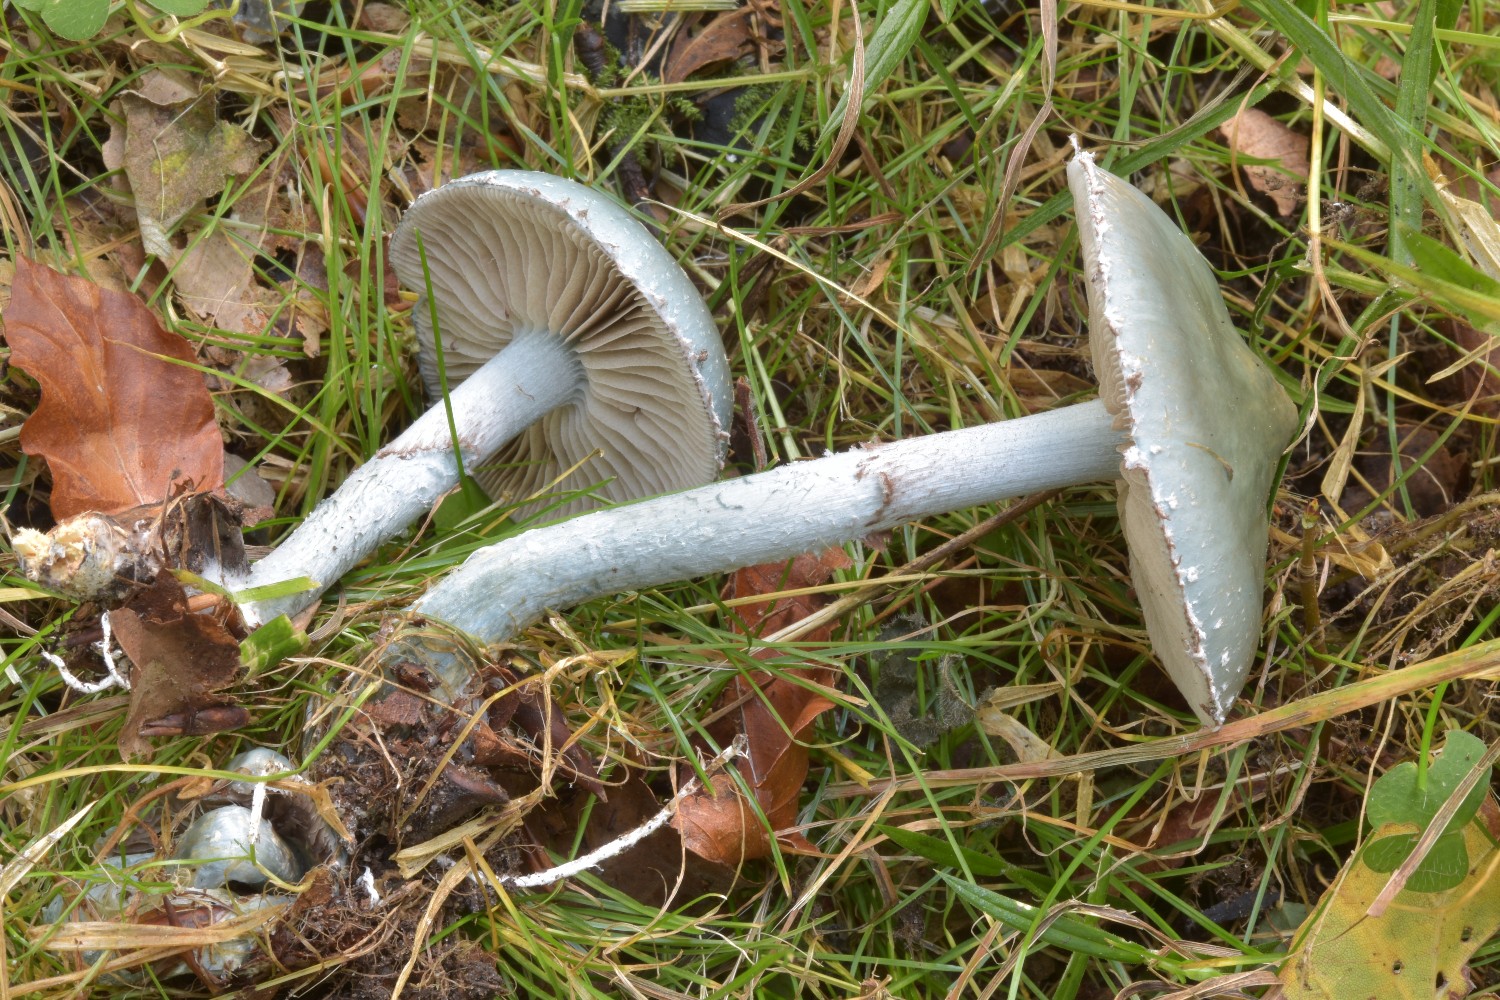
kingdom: Fungi
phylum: Basidiomycota
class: Agaricomycetes
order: Agaricales
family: Strophariaceae
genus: Stropharia
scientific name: Stropharia cyanea
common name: blågrøn bredblad
